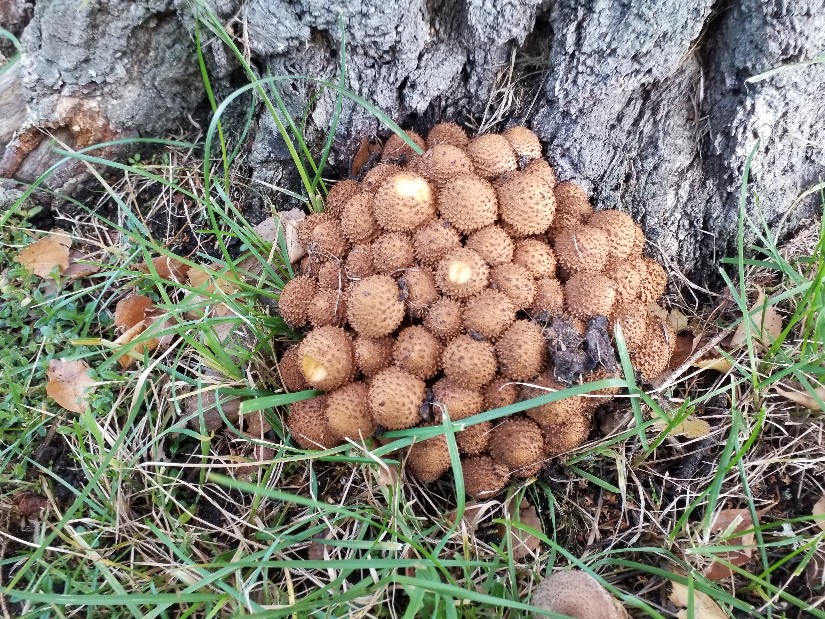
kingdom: Fungi
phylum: Basidiomycota
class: Agaricomycetes
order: Agaricales
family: Strophariaceae
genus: Pholiota
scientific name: Pholiota squarrosa
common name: krumskællet skælhat
